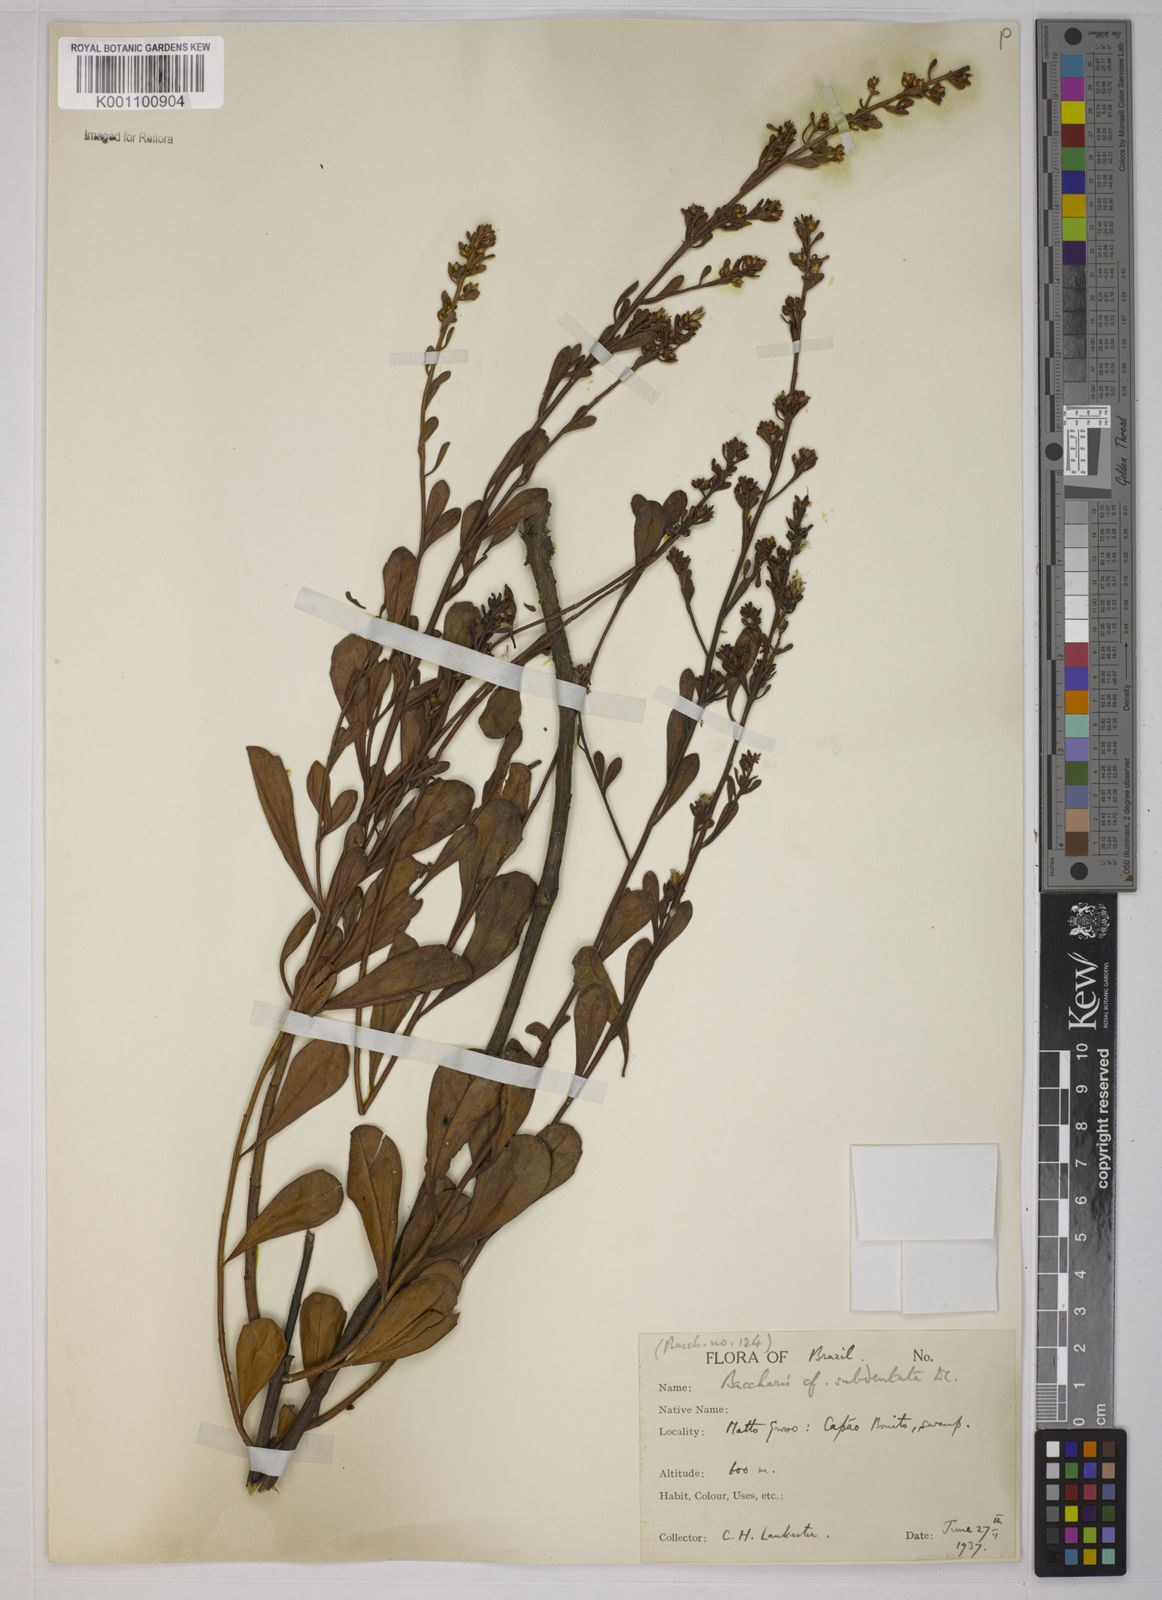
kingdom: Plantae
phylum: Tracheophyta
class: Magnoliopsida
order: Asterales
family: Asteraceae
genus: Baccharis
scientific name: Baccharis subdentata
